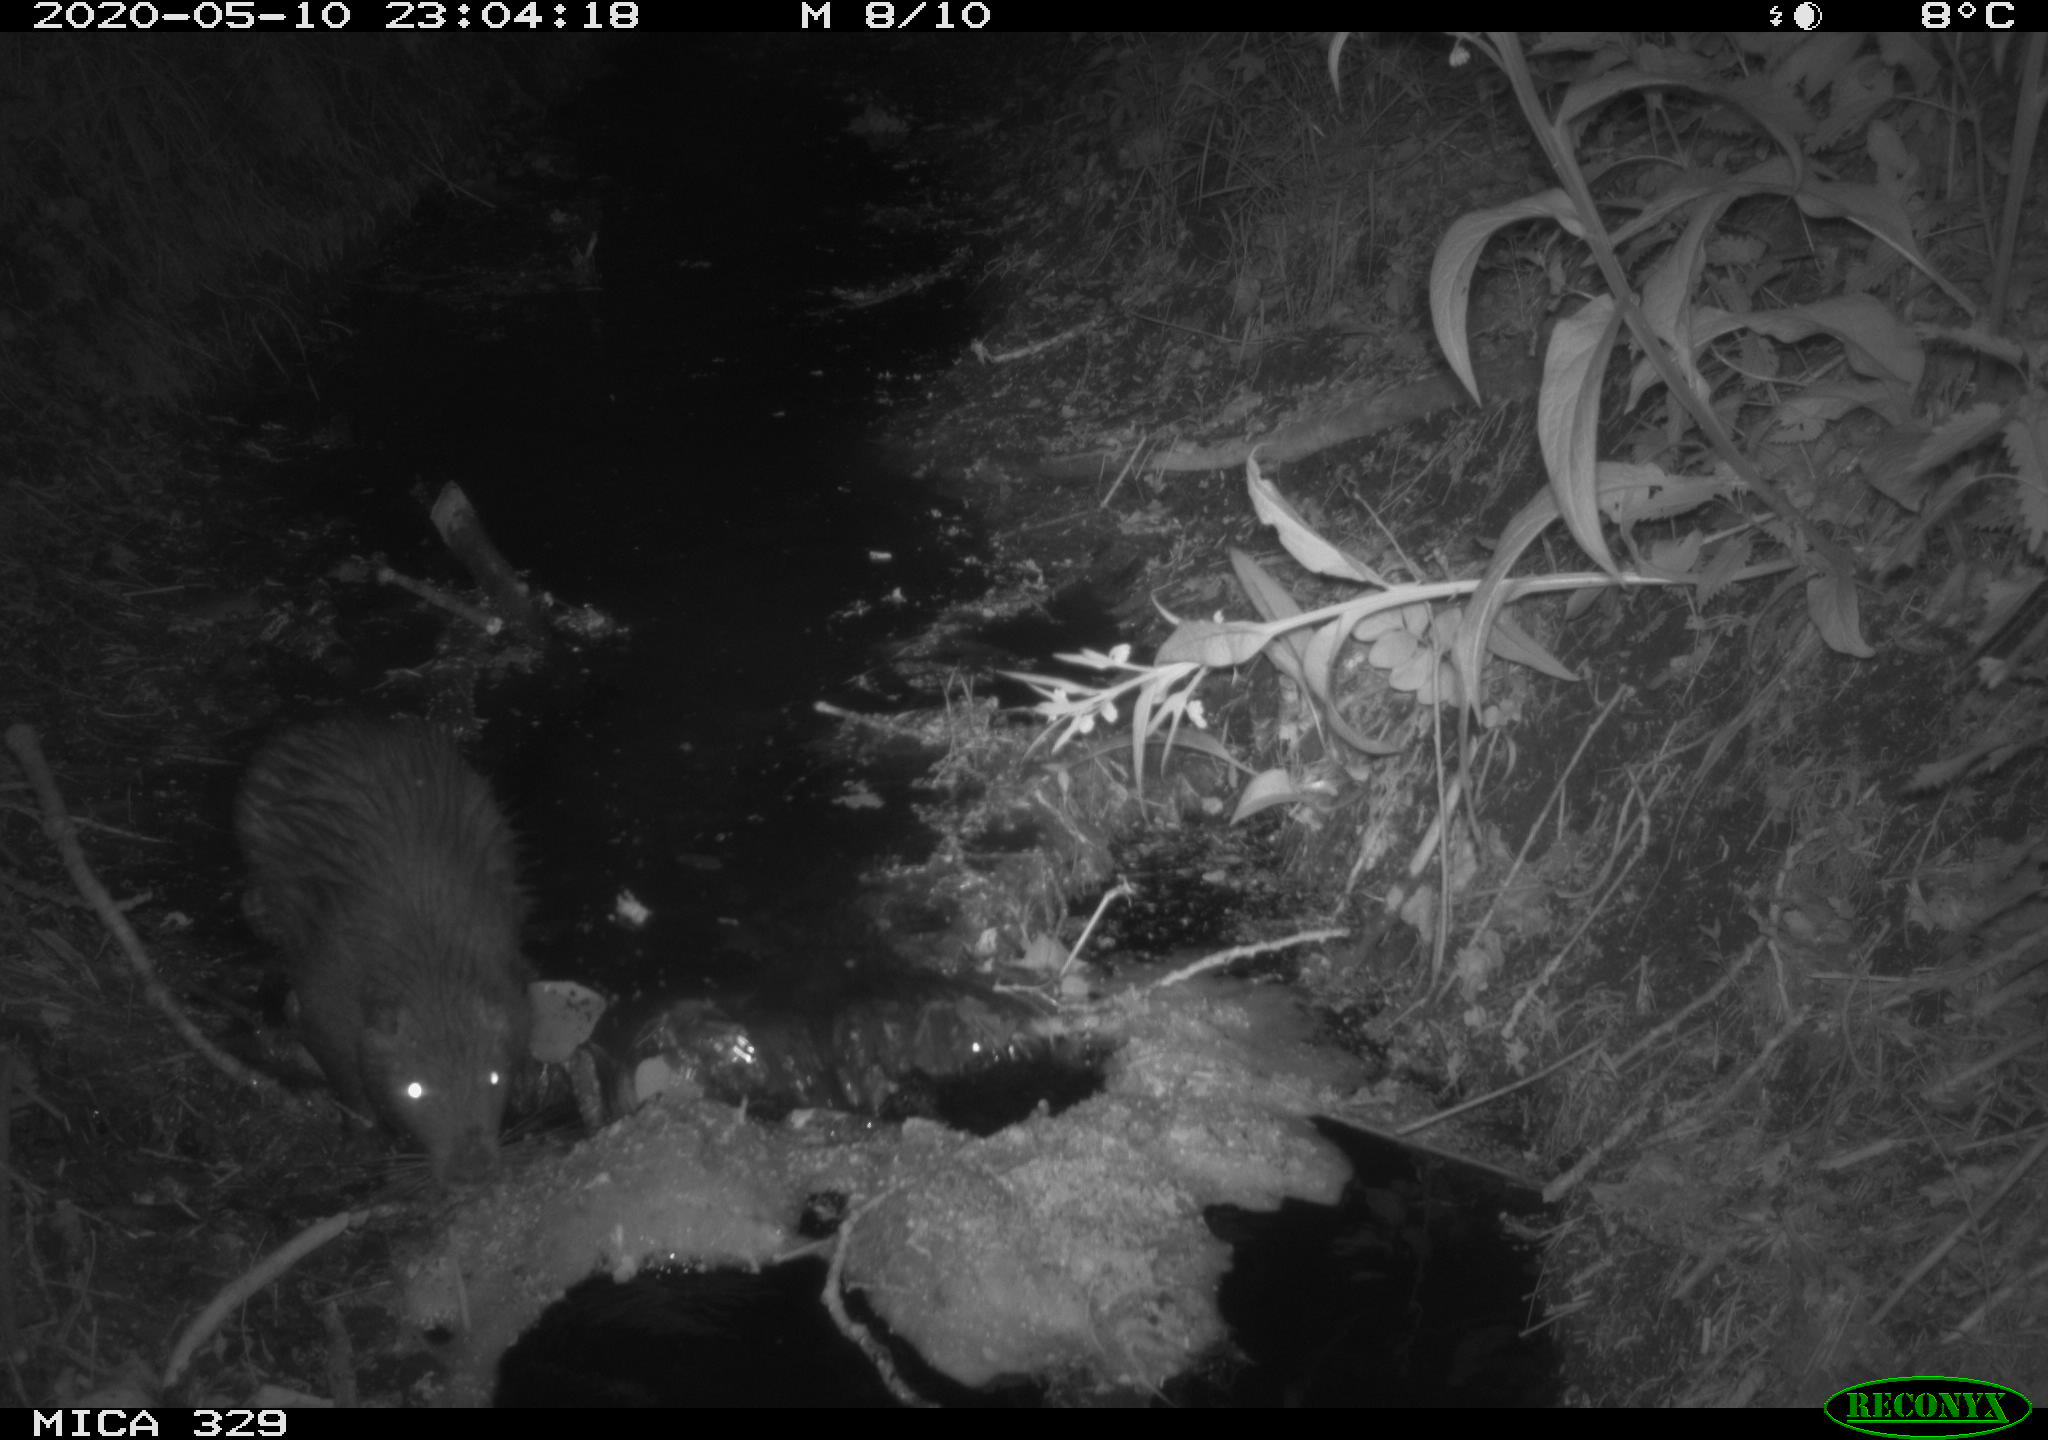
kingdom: Animalia
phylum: Chordata
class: Mammalia
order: Rodentia
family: Myocastoridae
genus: Myocastor
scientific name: Myocastor coypus
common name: Coypu
